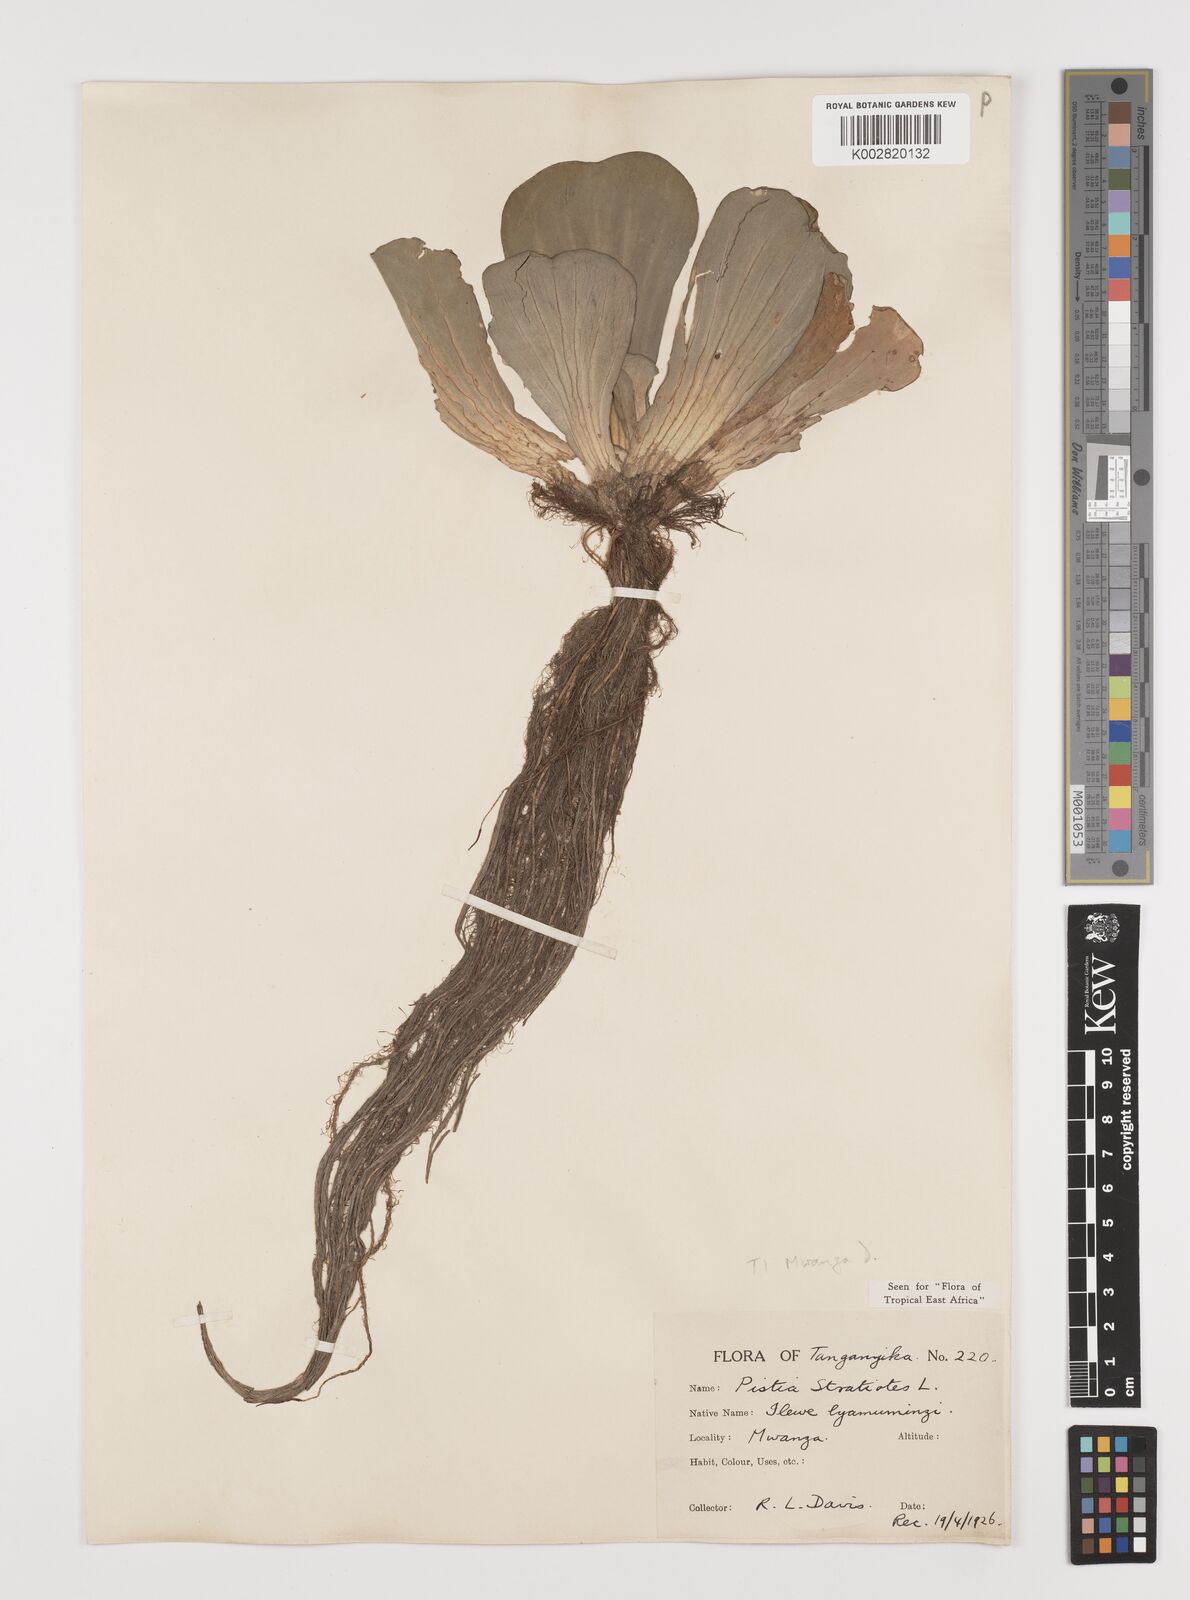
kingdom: Plantae
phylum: Tracheophyta
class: Liliopsida
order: Alismatales
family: Araceae
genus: Pistia
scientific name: Pistia stratiotes
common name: Water lettuce
